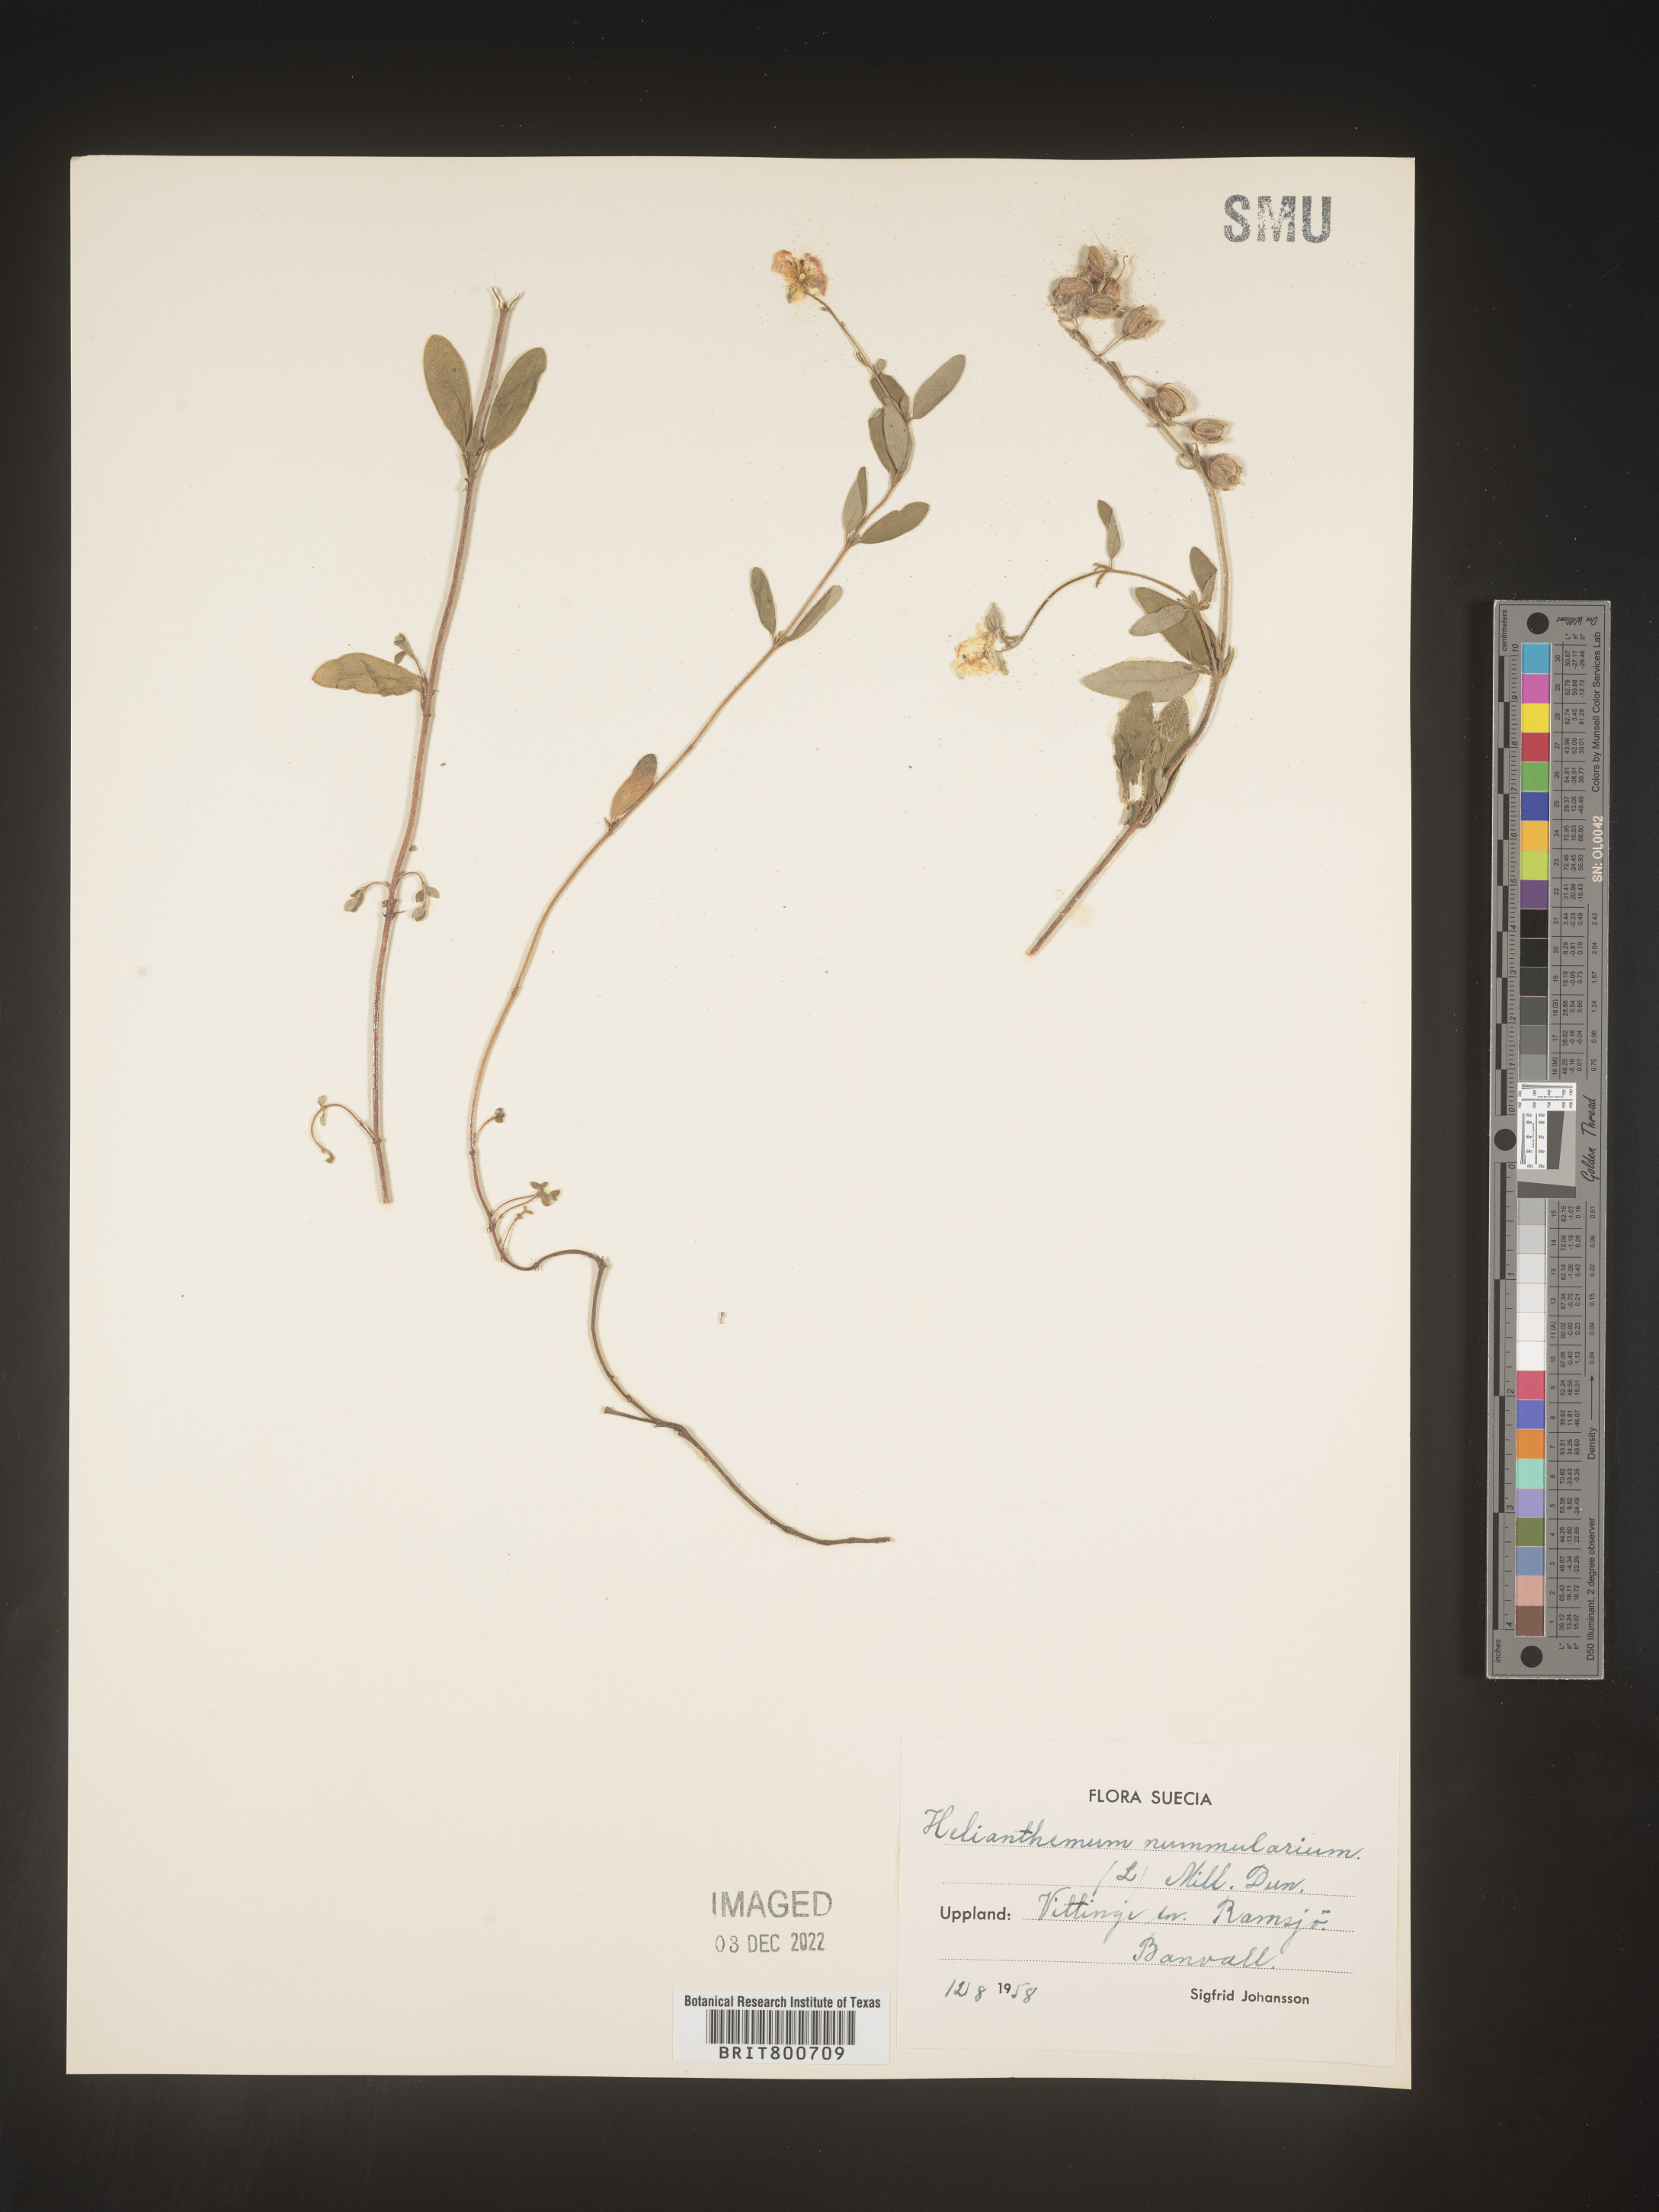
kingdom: Plantae
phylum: Tracheophyta
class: Magnoliopsida
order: Malvales
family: Cistaceae
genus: Helianthemum
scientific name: Helianthemum
